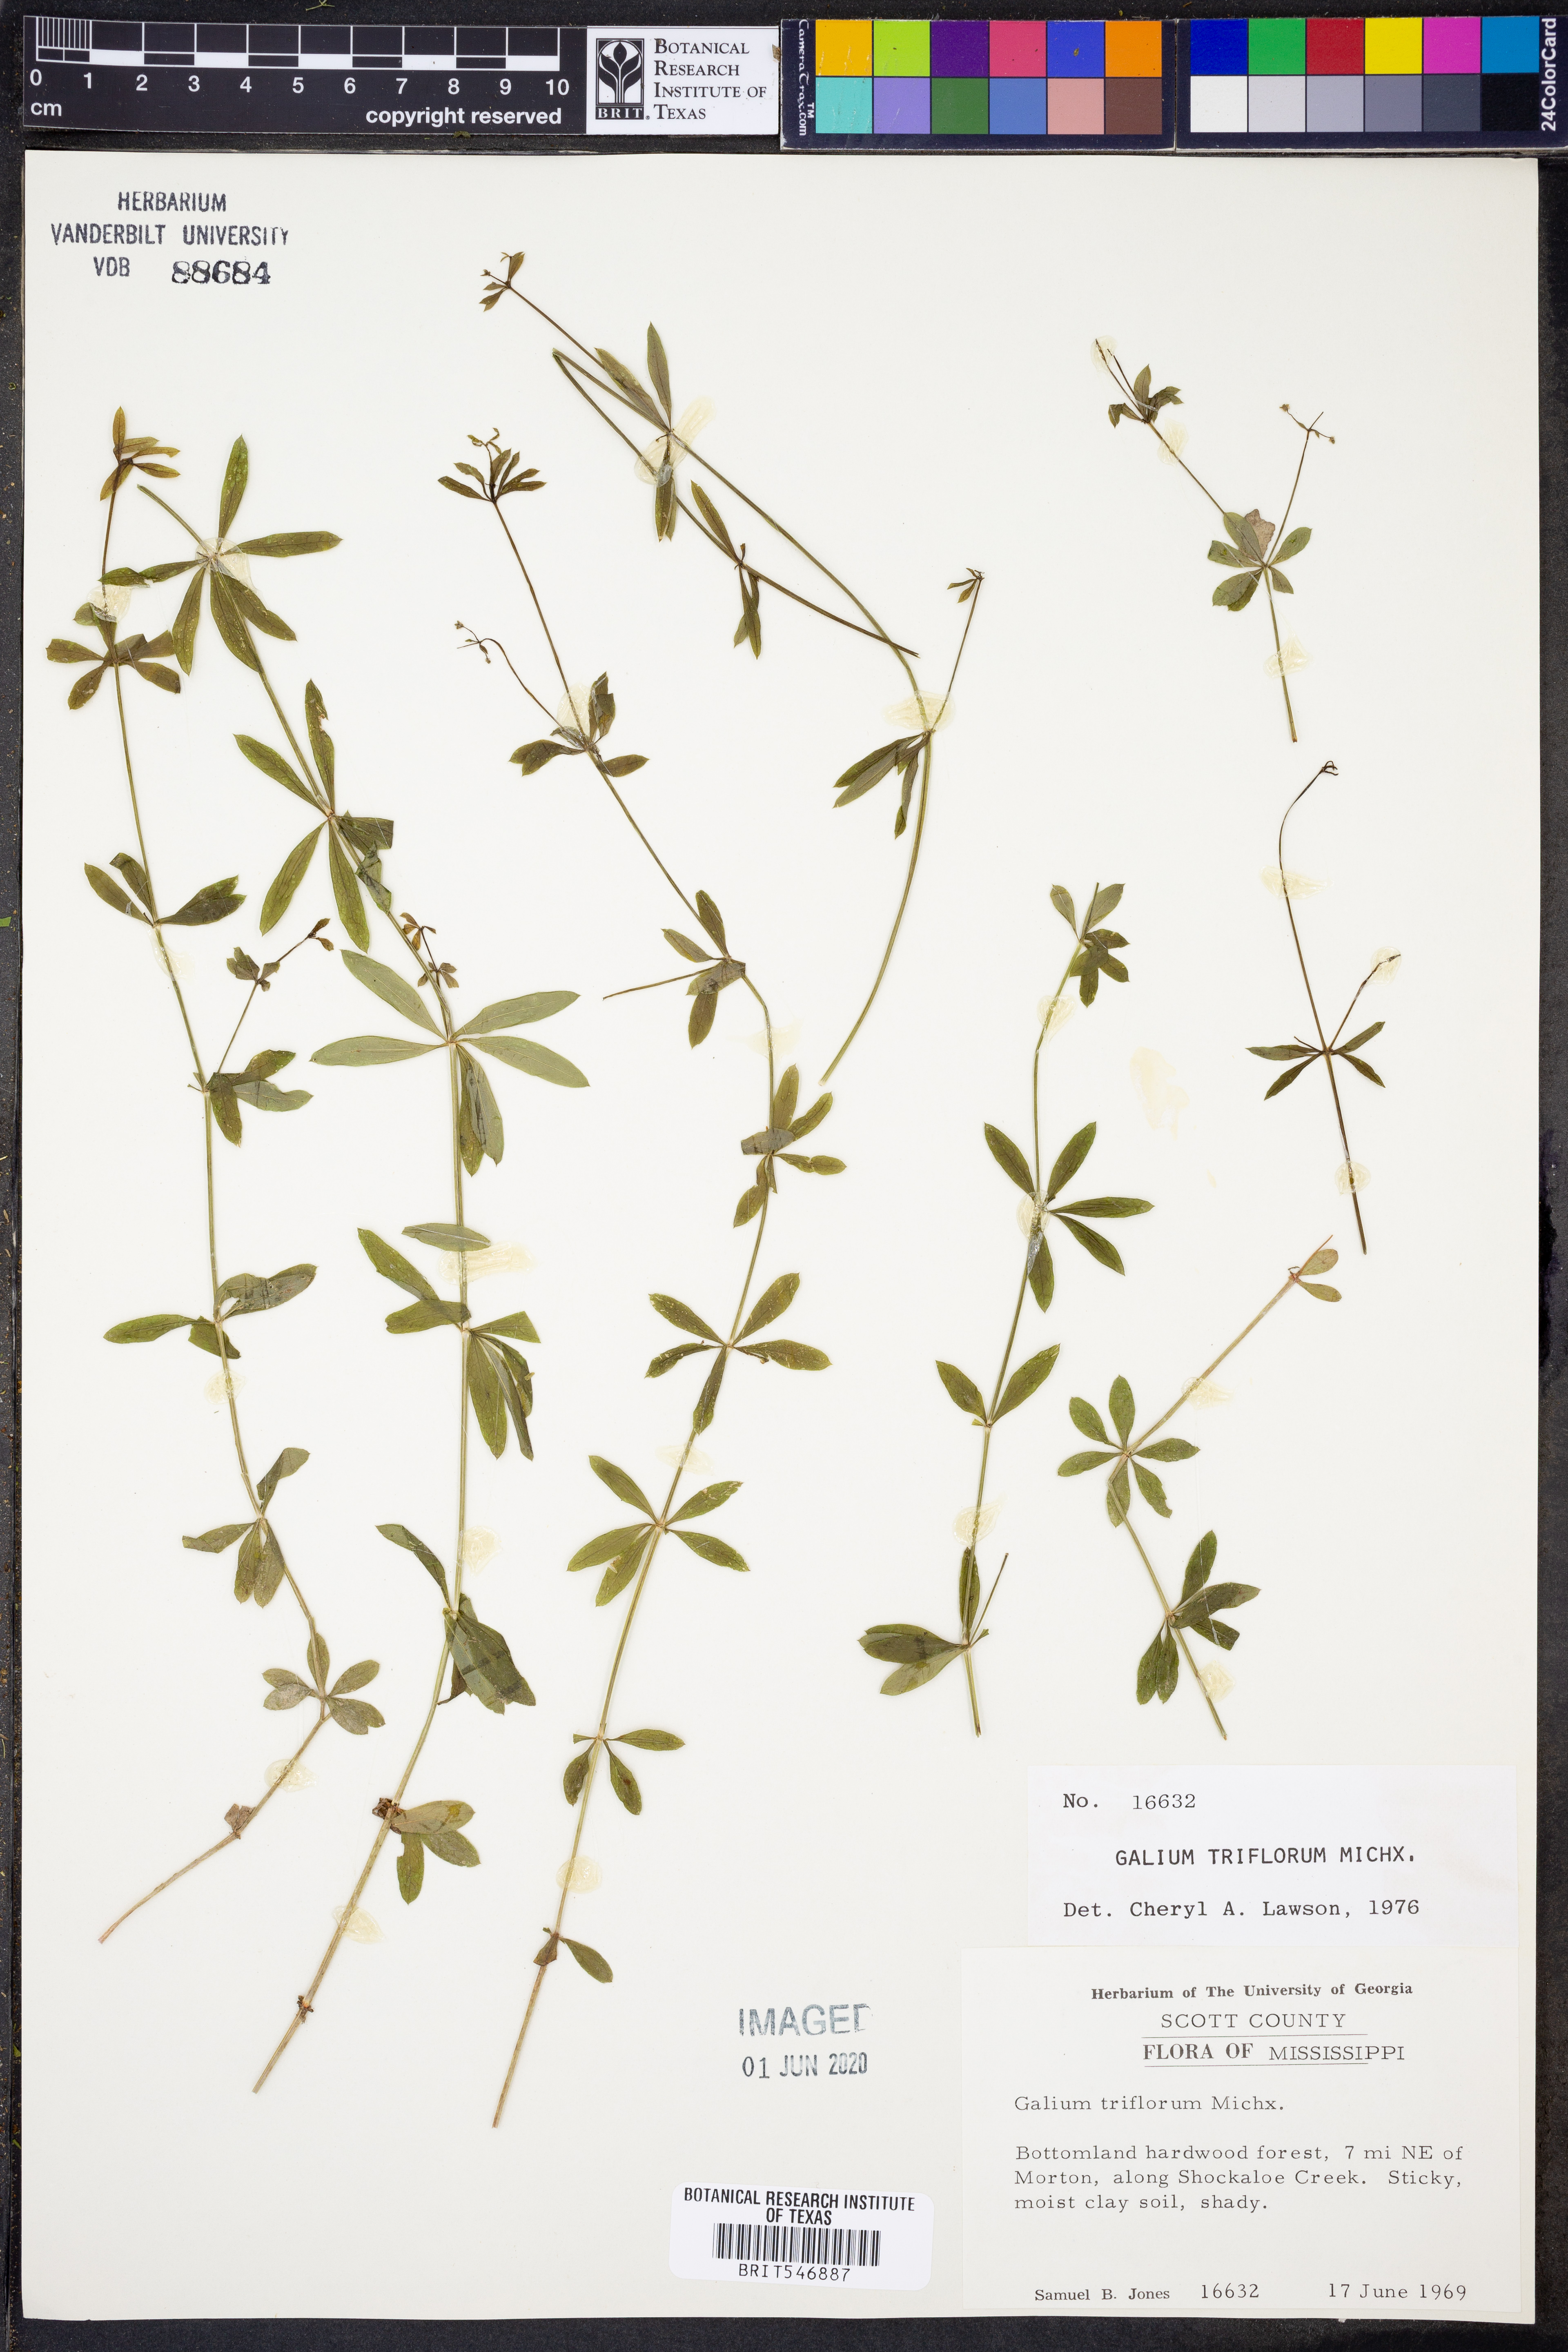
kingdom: Plantae
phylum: Tracheophyta
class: Magnoliopsida
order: Gentianales
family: Rubiaceae
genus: Galium
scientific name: Galium triflorum
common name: Fragrant bedstraw
